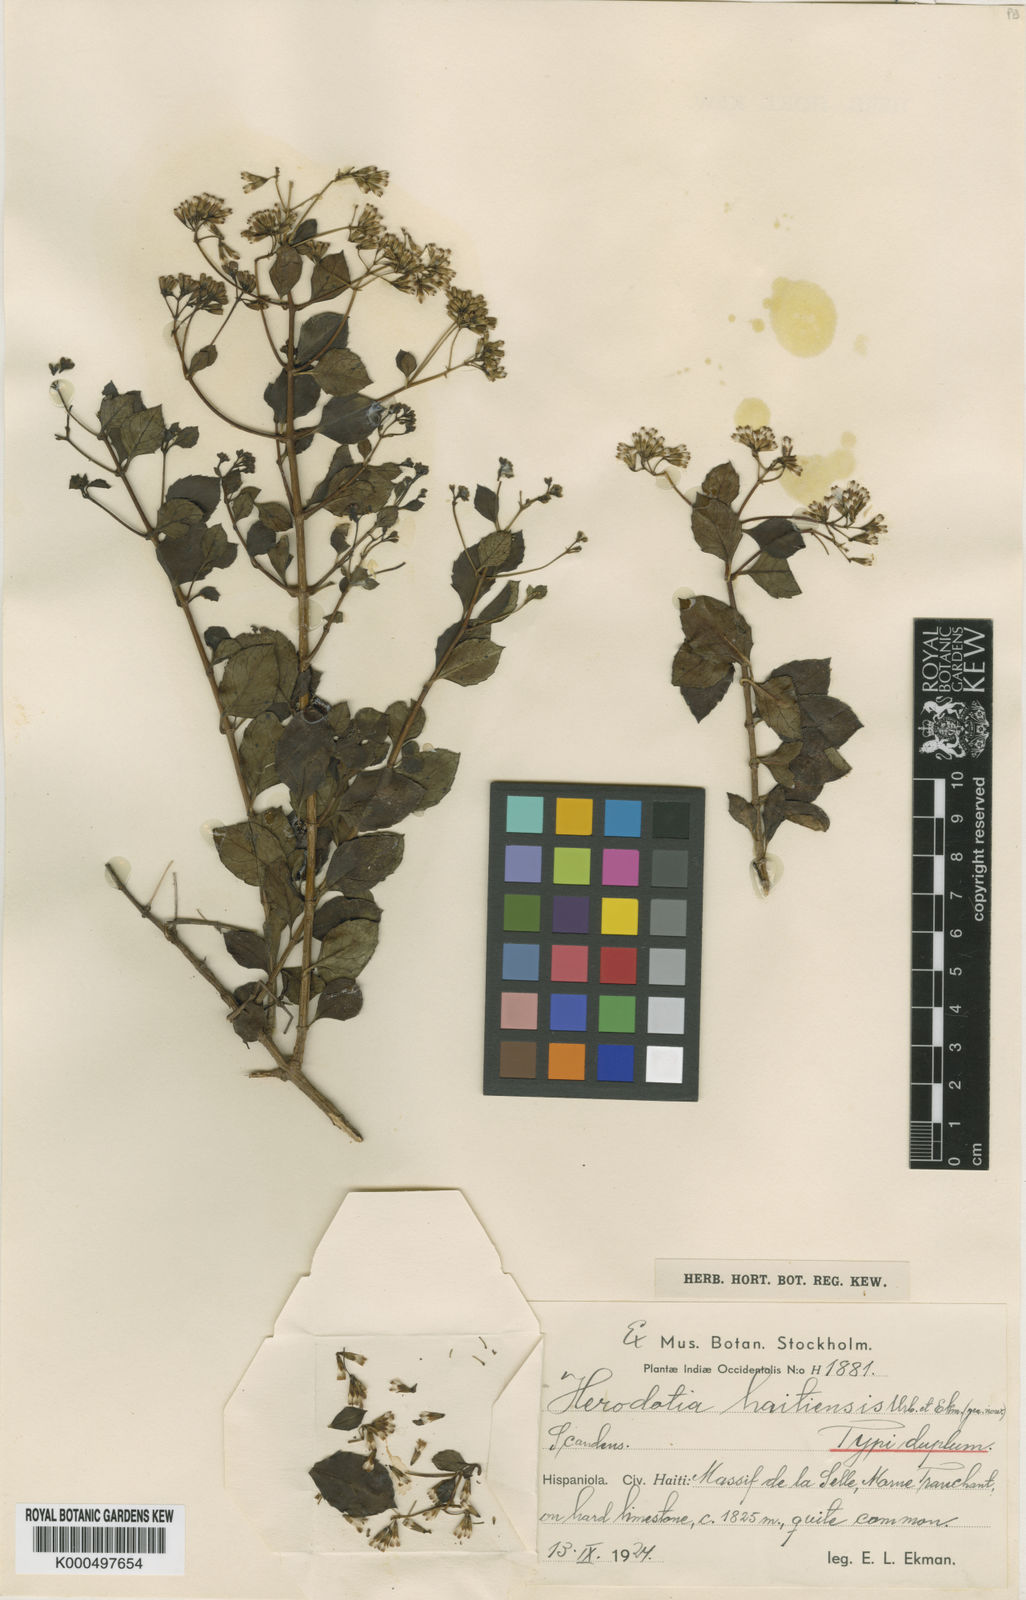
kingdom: Plantae
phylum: Tracheophyta
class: Magnoliopsida
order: Asterales
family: Asteraceae
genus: Herodotia
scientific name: Herodotia haitiensis
